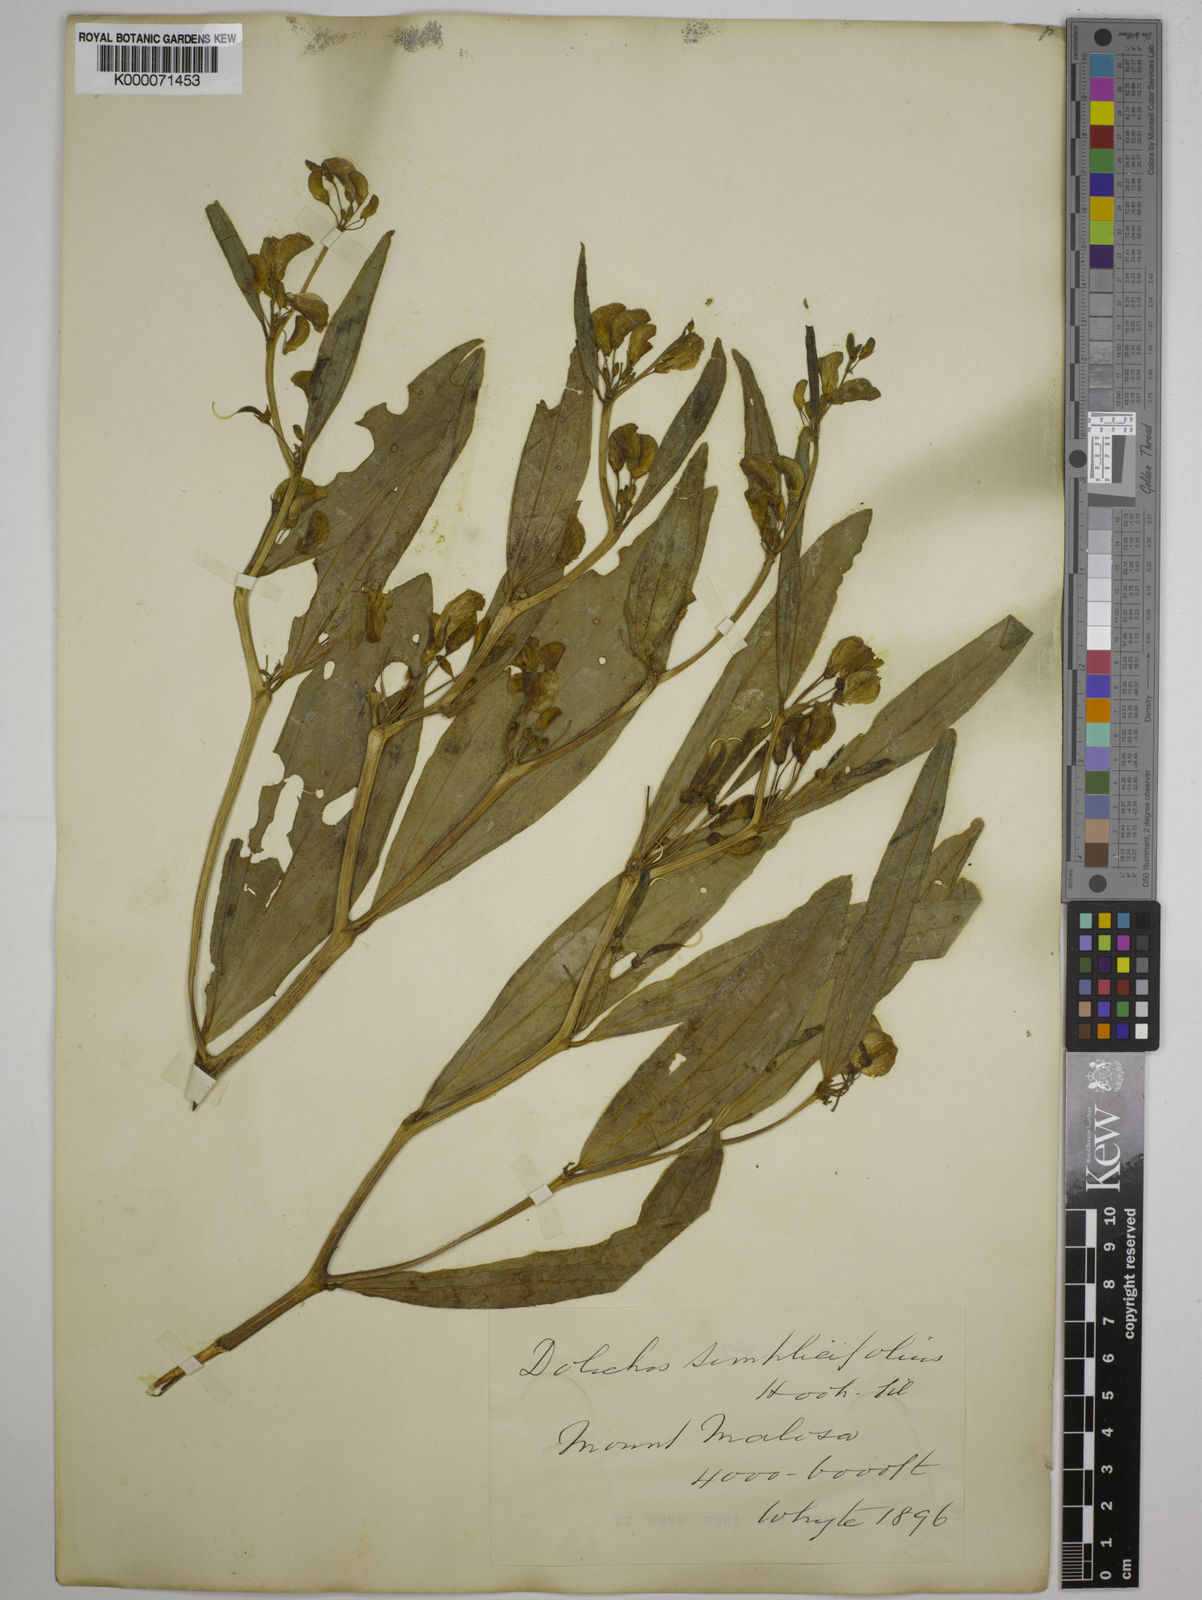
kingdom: Plantae
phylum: Tracheophyta
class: Magnoliopsida
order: Fabales
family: Fabaceae
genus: Dolichos
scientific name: Dolichos simplicifolius
